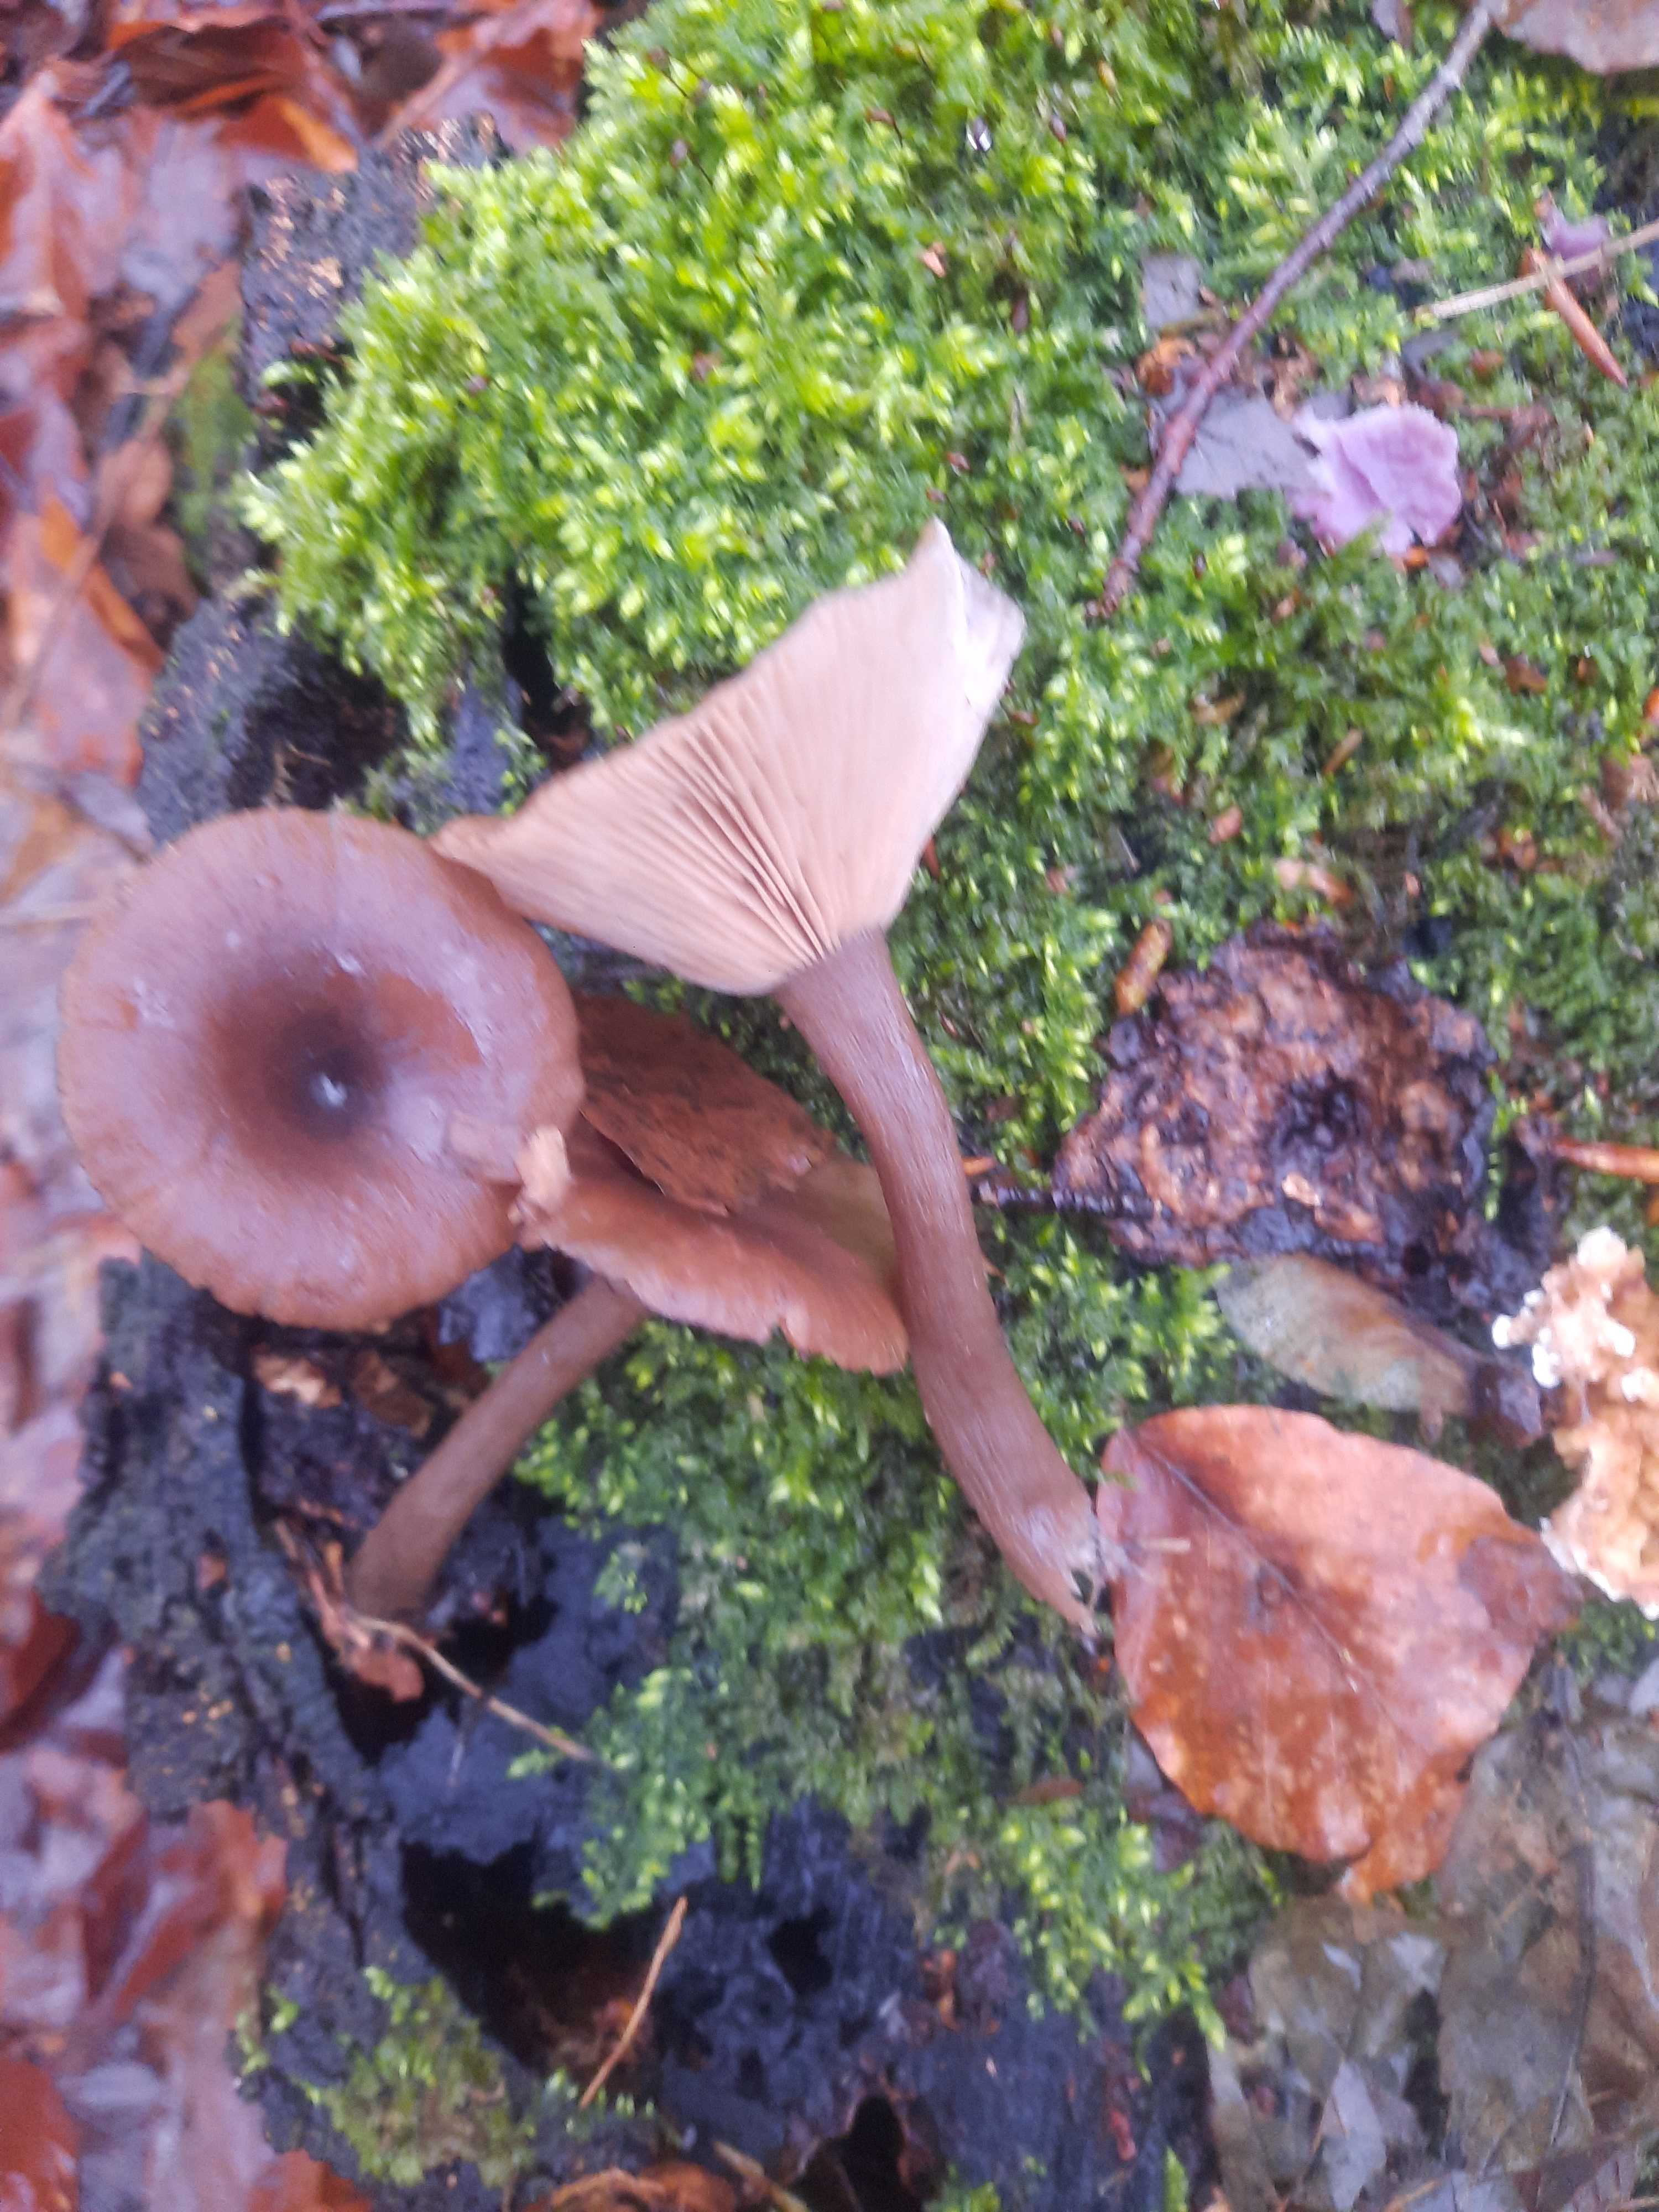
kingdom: Fungi
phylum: Basidiomycota
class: Agaricomycetes
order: Agaricales
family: Pseudoclitocybaceae
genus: Pseudoclitocybe
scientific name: Pseudoclitocybe cyathiformis
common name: almindelig bægertragthat
